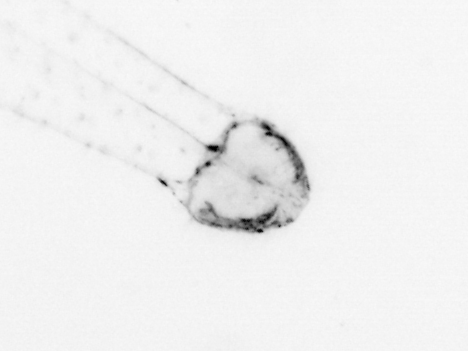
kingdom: Animalia
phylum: Chaetognatha
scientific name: Chaetognatha
